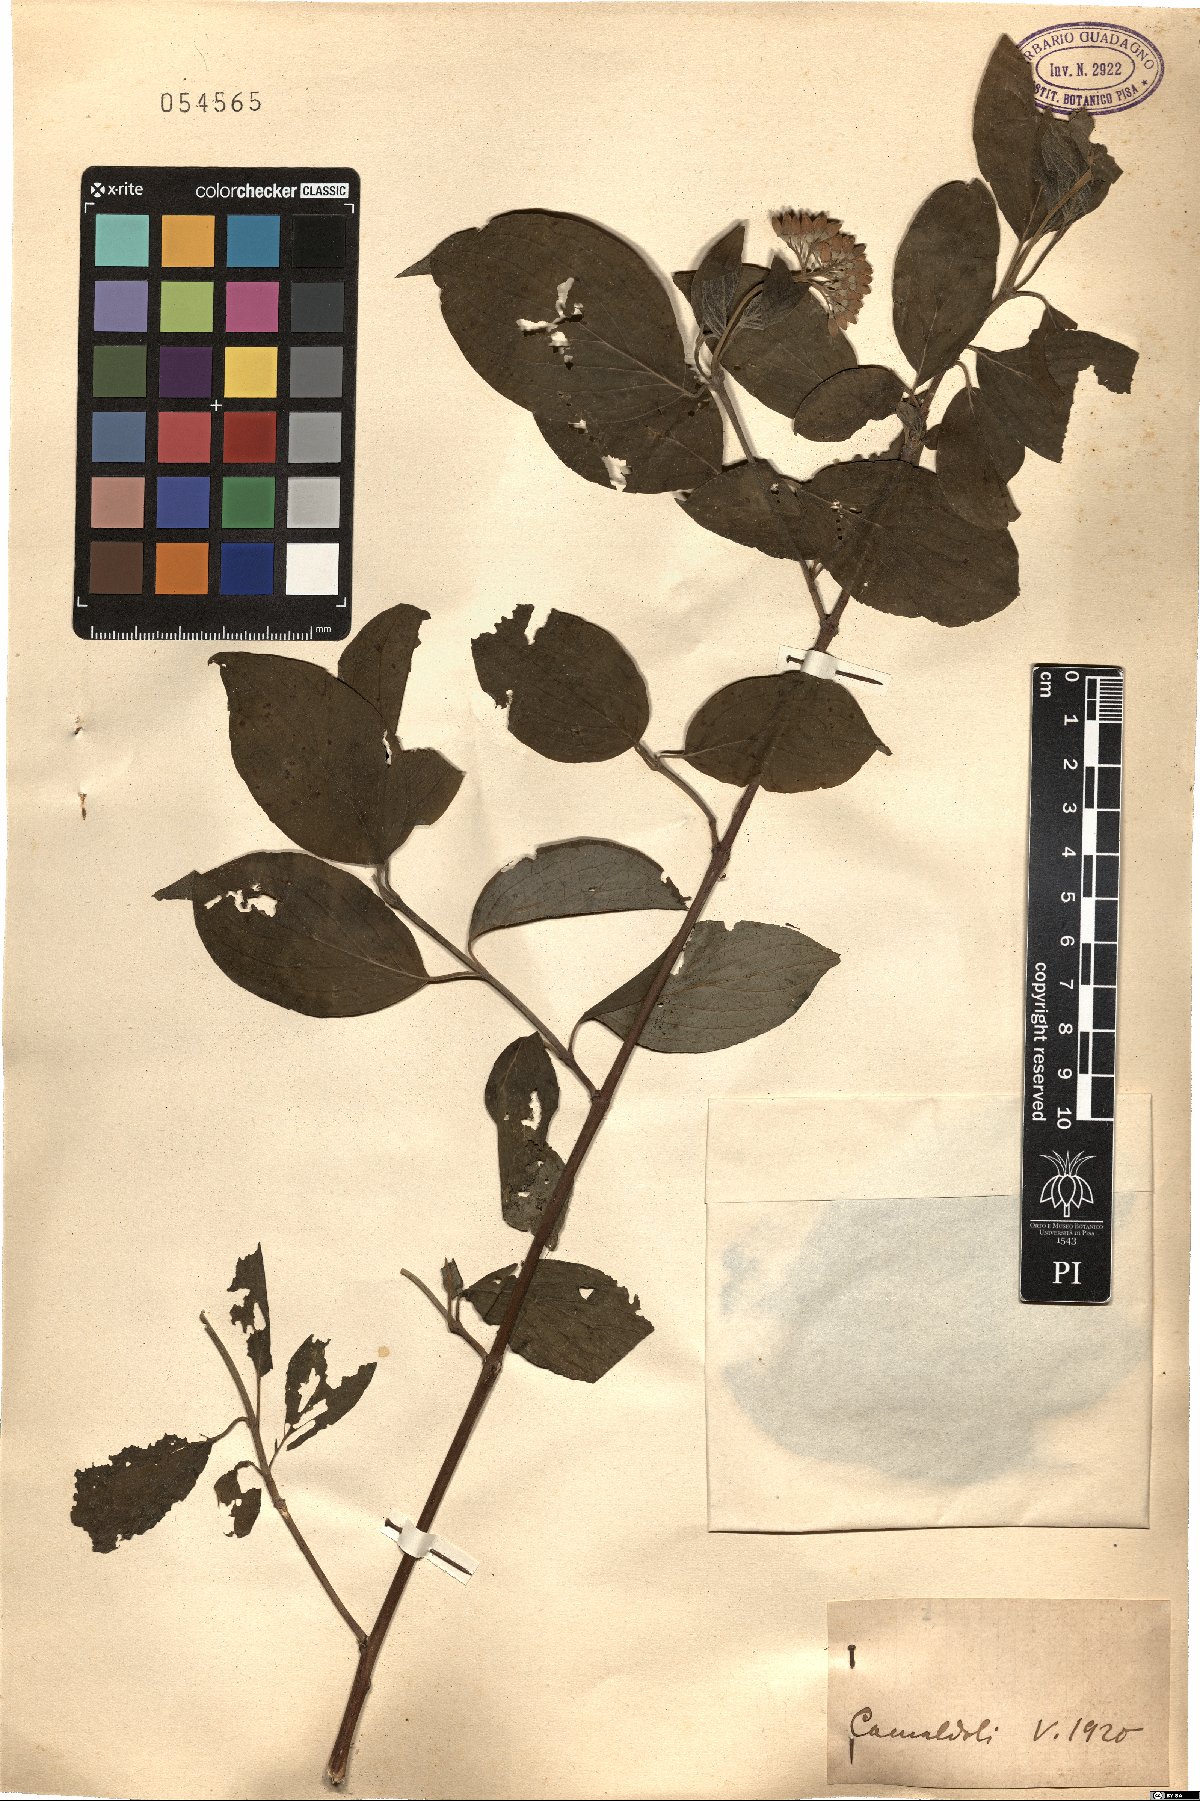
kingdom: Plantae
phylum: Tracheophyta
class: Magnoliopsida
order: Cornales
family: Cornaceae
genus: Cornus
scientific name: Cornus
